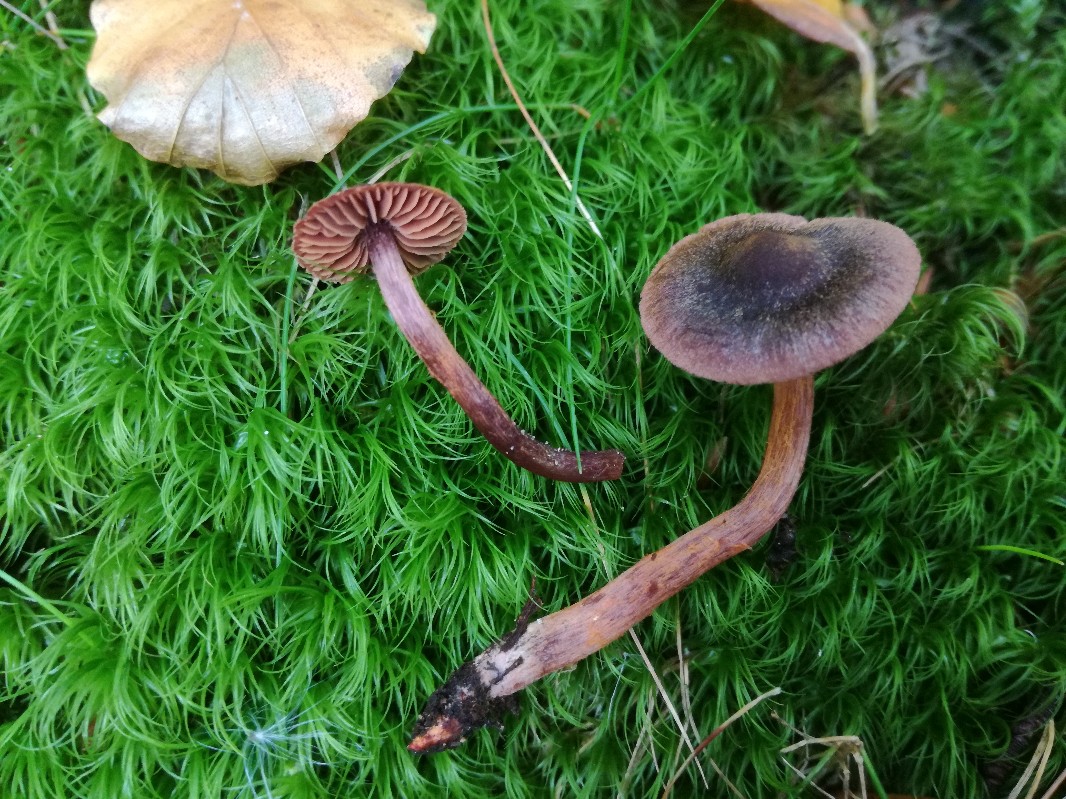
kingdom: Fungi
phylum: Basidiomycota
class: Agaricomycetes
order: Agaricales
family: Cortinariaceae
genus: Cortinarius
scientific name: Cortinarius anthracinus
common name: purpursort slørhat
